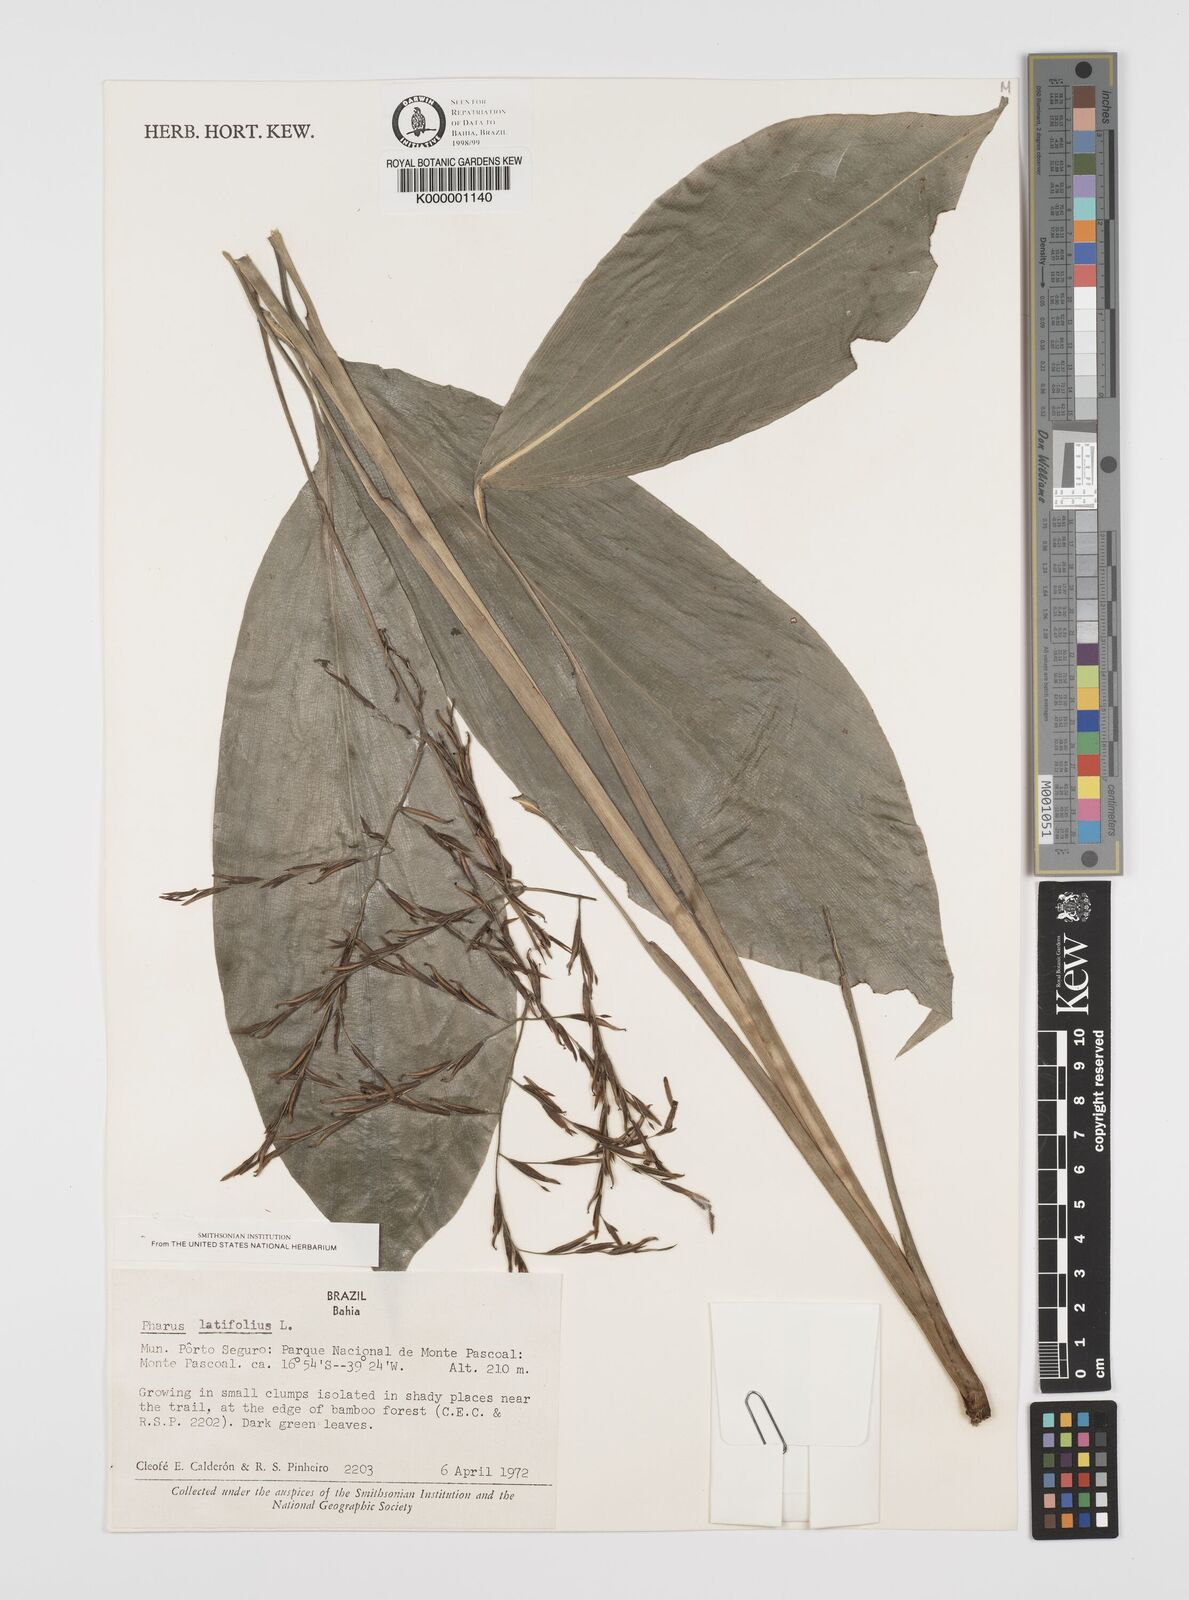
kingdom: Plantae
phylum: Tracheophyta
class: Liliopsida
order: Poales
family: Poaceae
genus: Pharus
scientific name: Pharus latifolius
